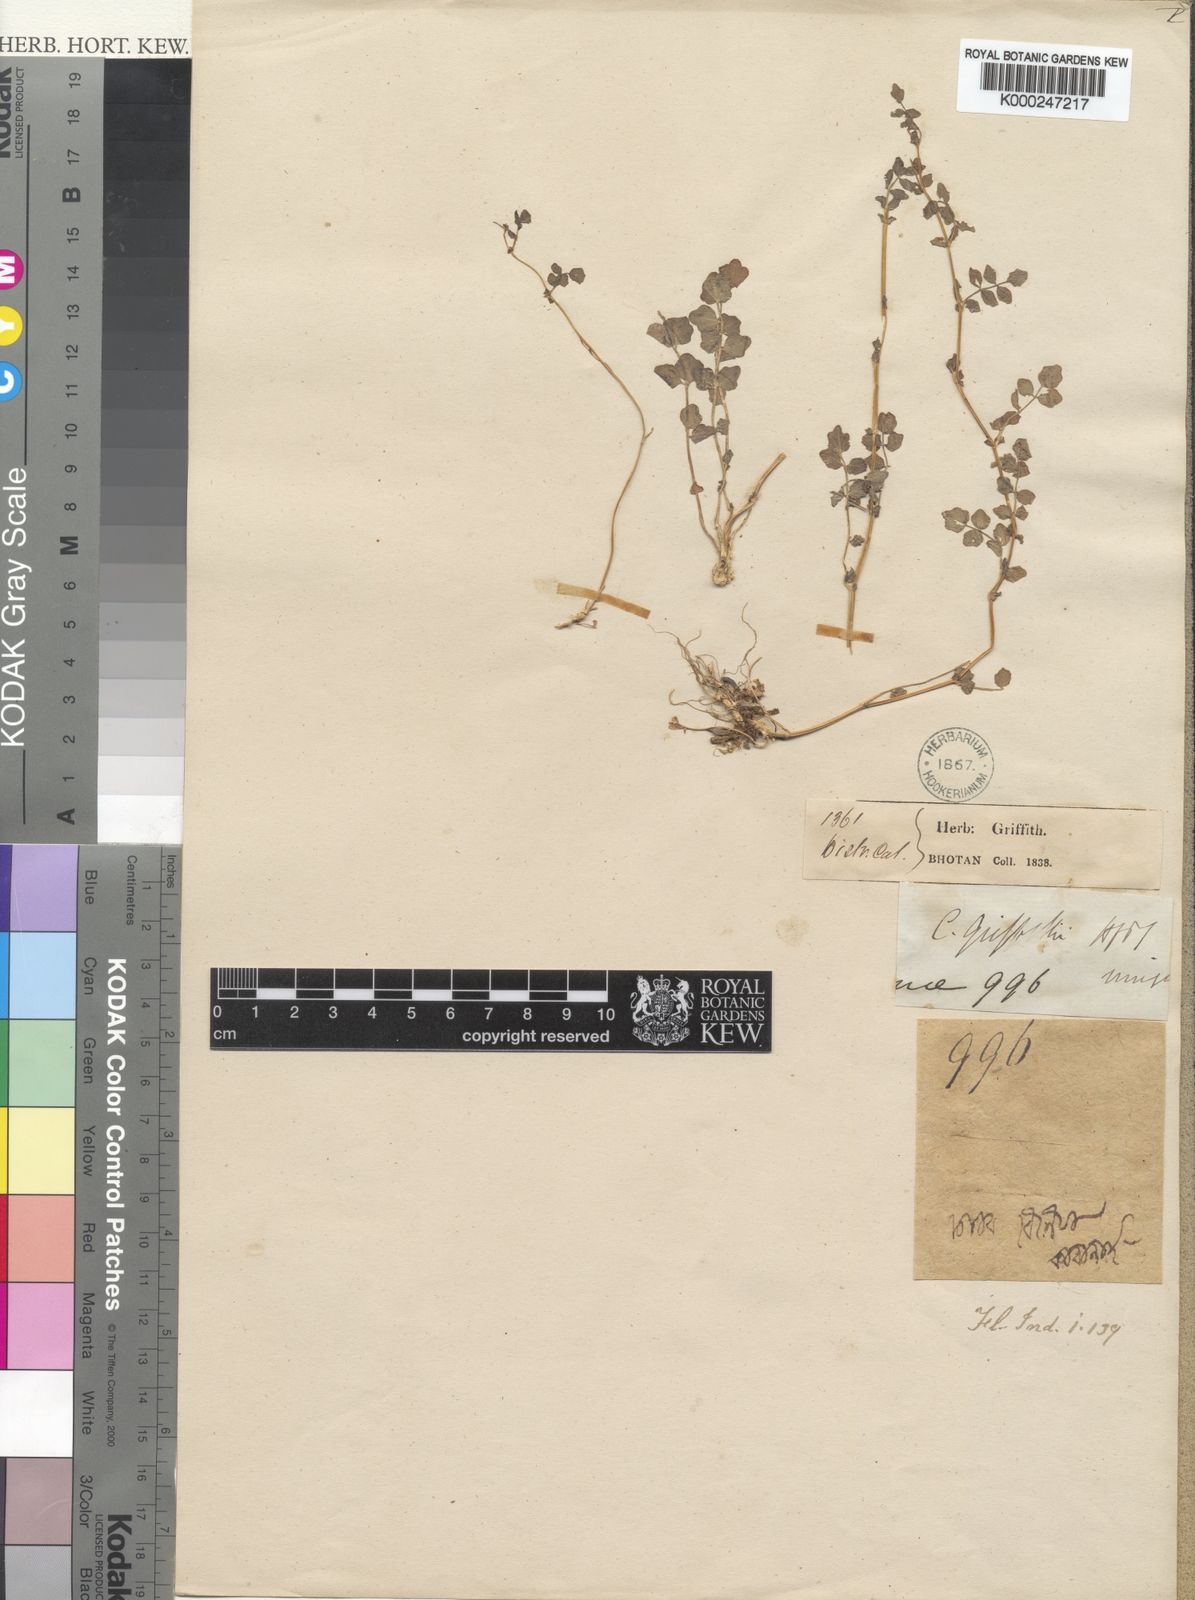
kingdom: Plantae
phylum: Tracheophyta
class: Magnoliopsida
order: Brassicales
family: Brassicaceae
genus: Cardamine
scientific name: Cardamine griffithii
